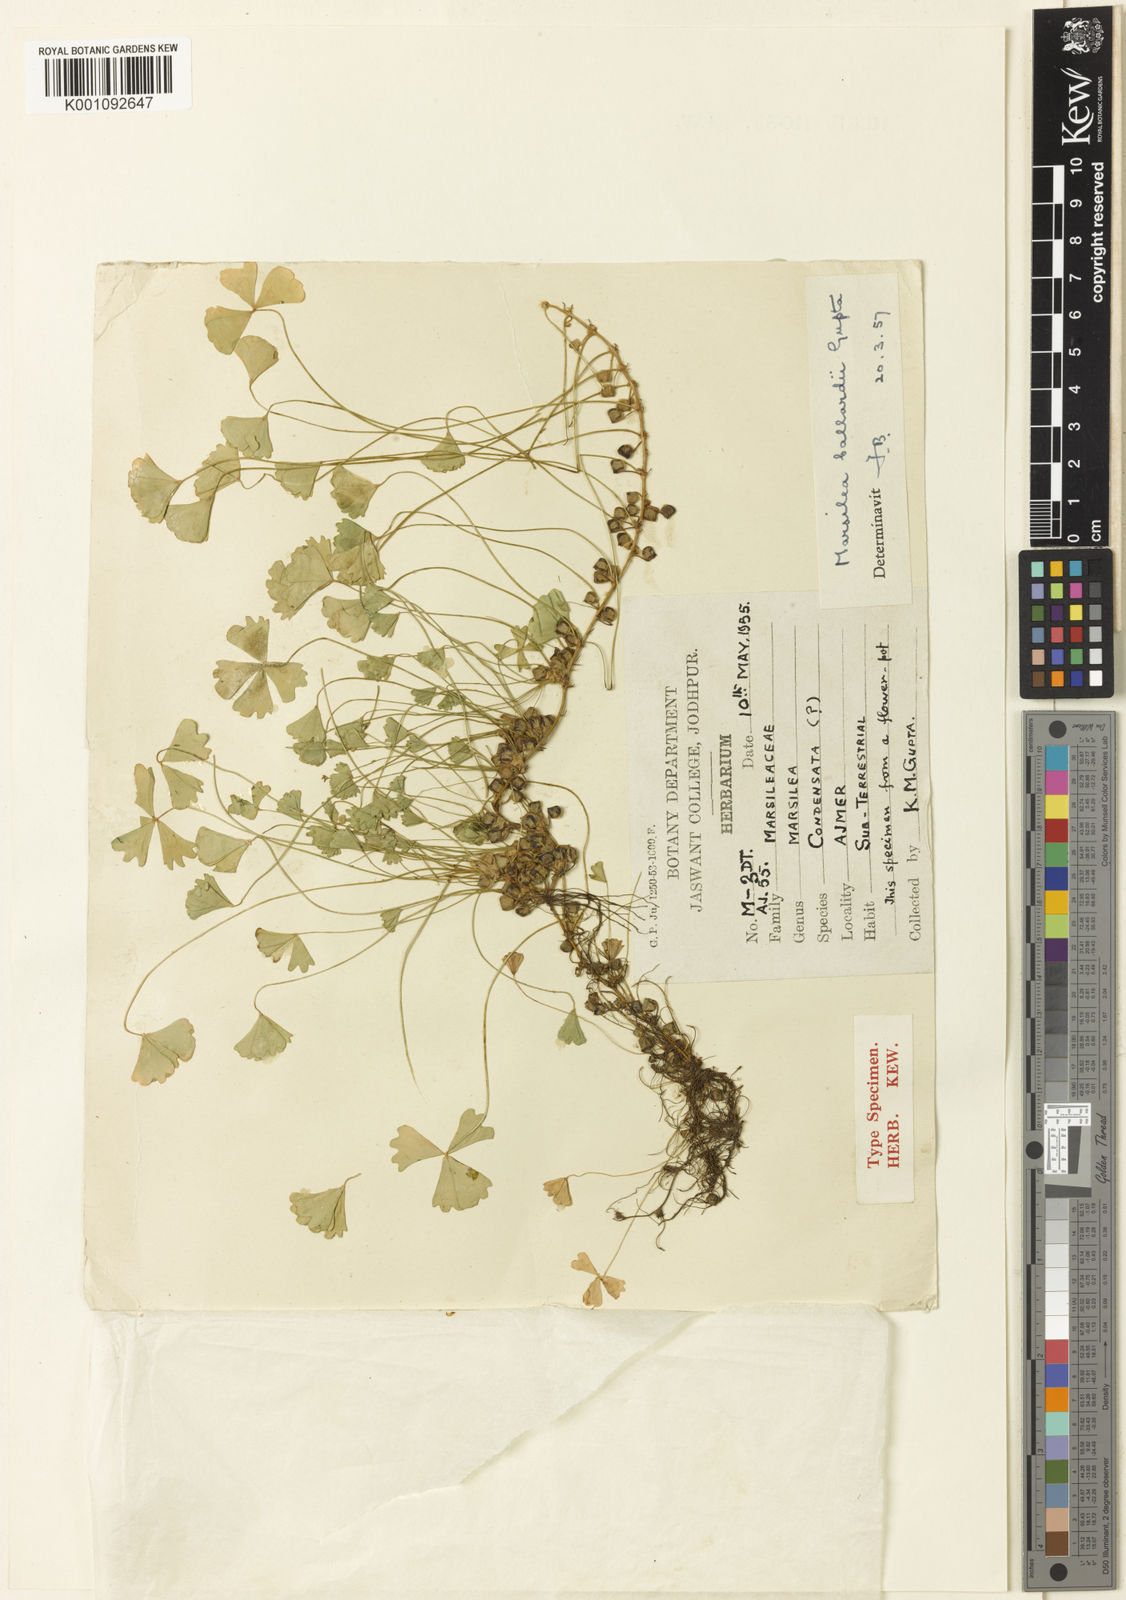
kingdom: Plantae
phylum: Tracheophyta
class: Polypodiopsida
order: Salviniales
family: Marsileaceae
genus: Marsilea
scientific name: Marsilea aegyptiaca
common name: Egyptian water-clover
